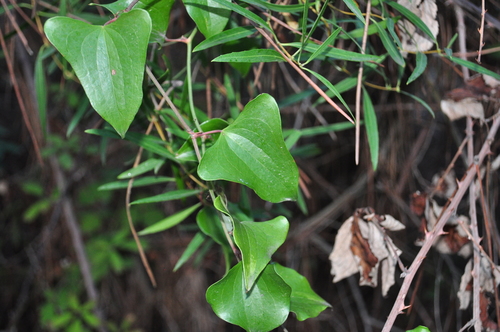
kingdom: Plantae
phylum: Tracheophyta
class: Liliopsida
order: Liliales
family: Smilacaceae
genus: Smilax
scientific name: Smilax aspera
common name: Common smilax
